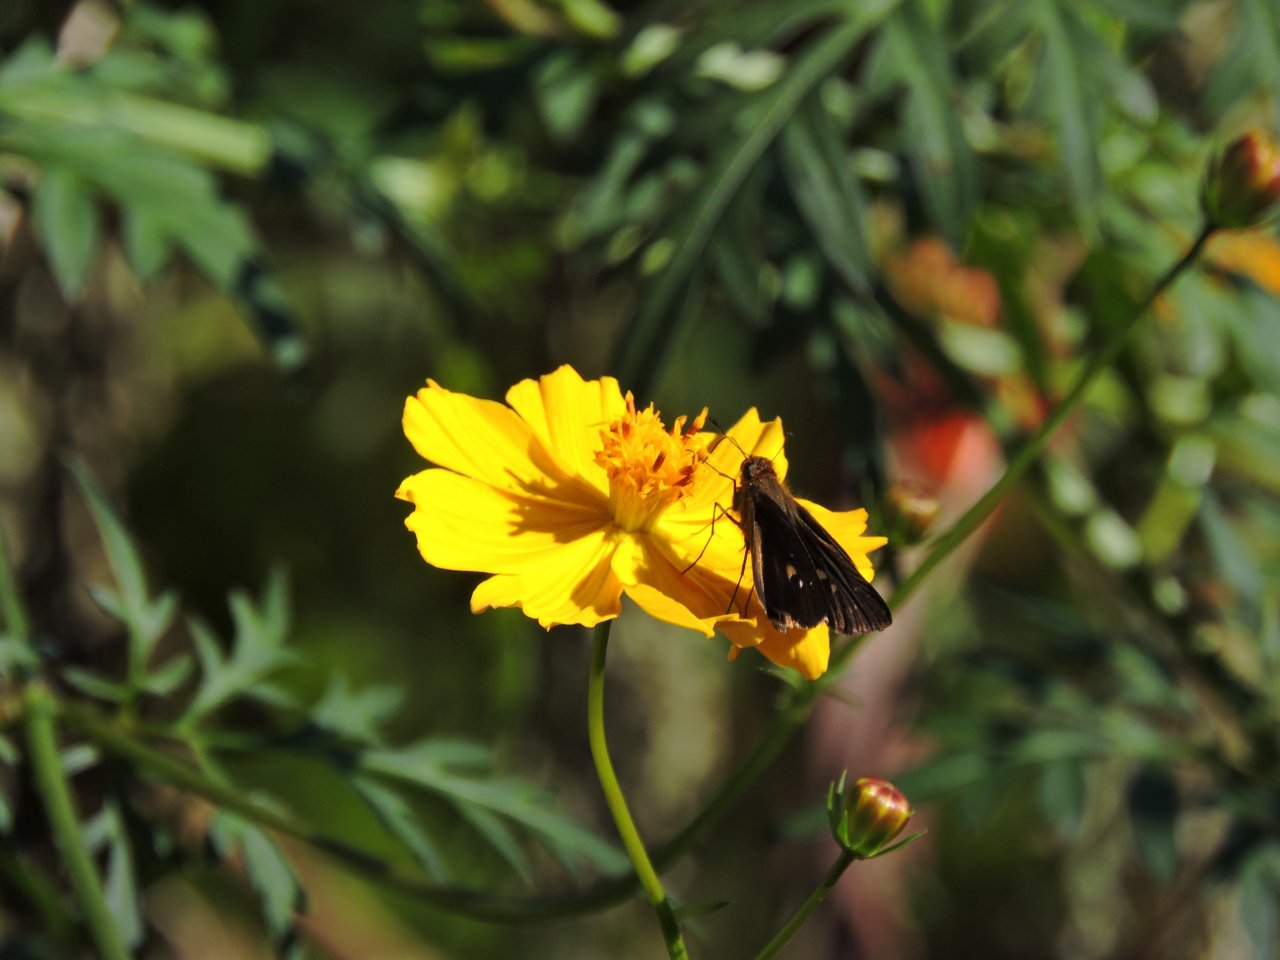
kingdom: Animalia
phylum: Arthropoda
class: Insecta
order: Lepidoptera
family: Hesperiidae
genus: Panoquina
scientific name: Panoquina ocola
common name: Ocola Skipper
